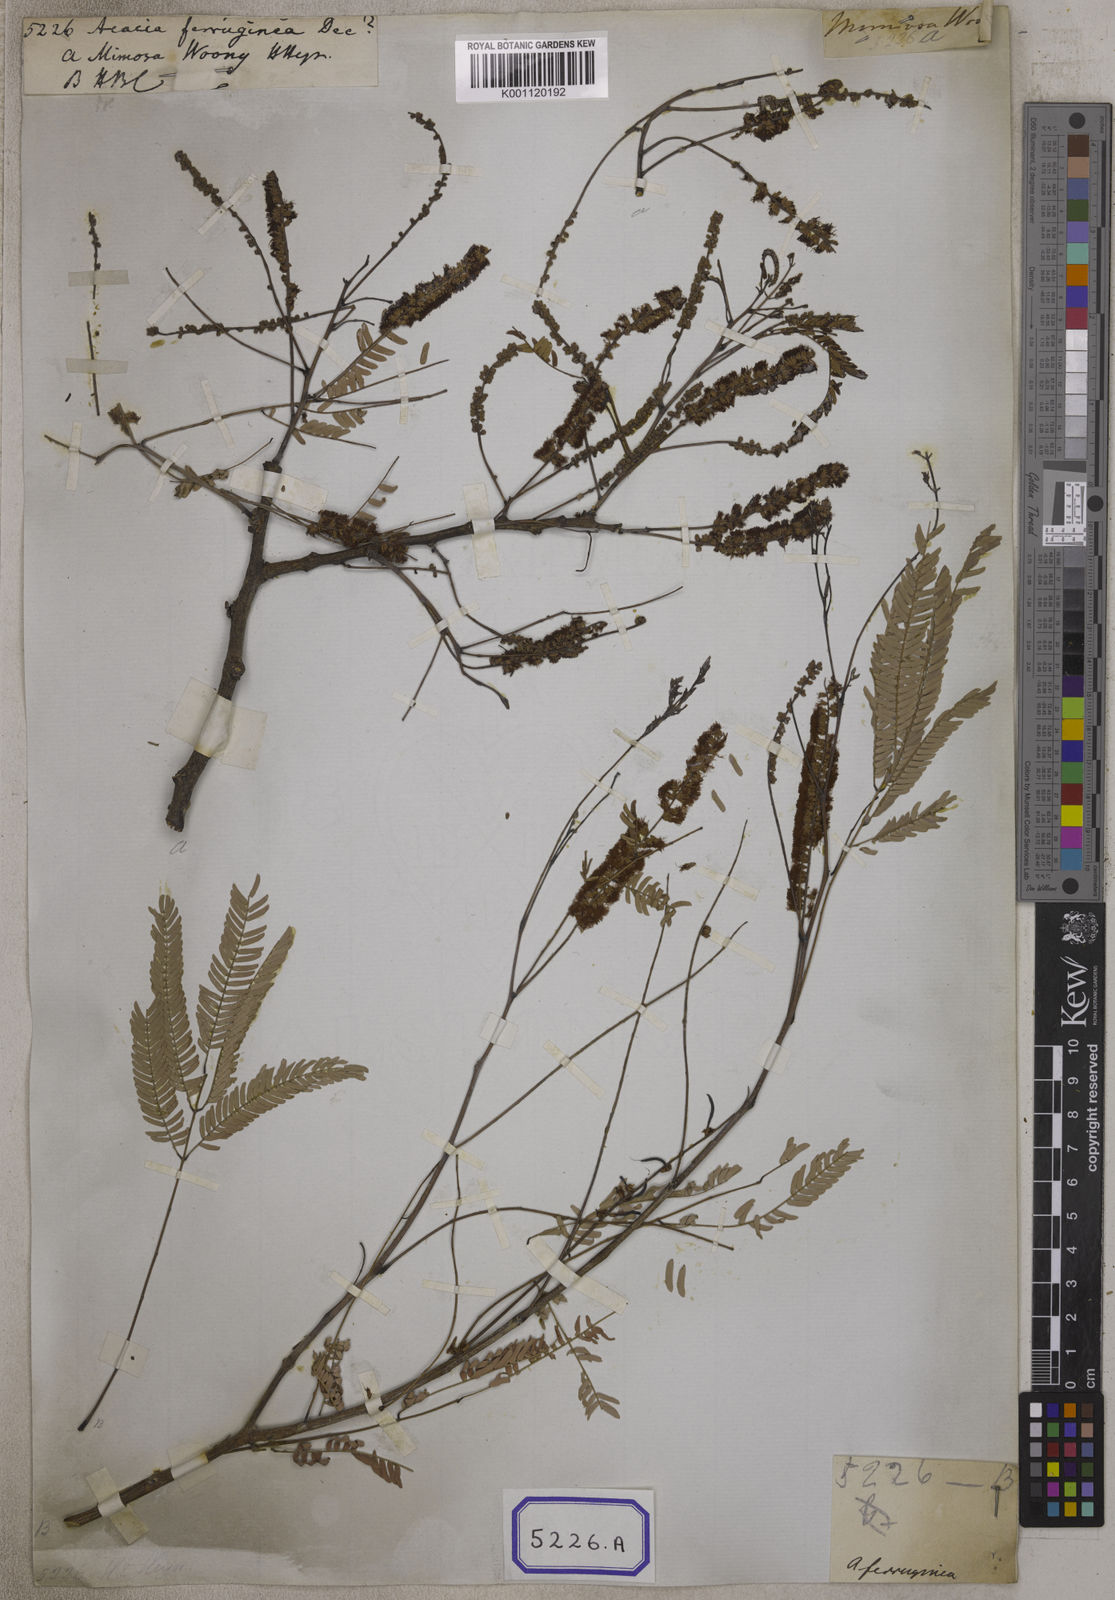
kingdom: Plantae
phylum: Tracheophyta
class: Magnoliopsida
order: Fabales
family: Fabaceae
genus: Senegalia
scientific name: Senegalia ferruginea
